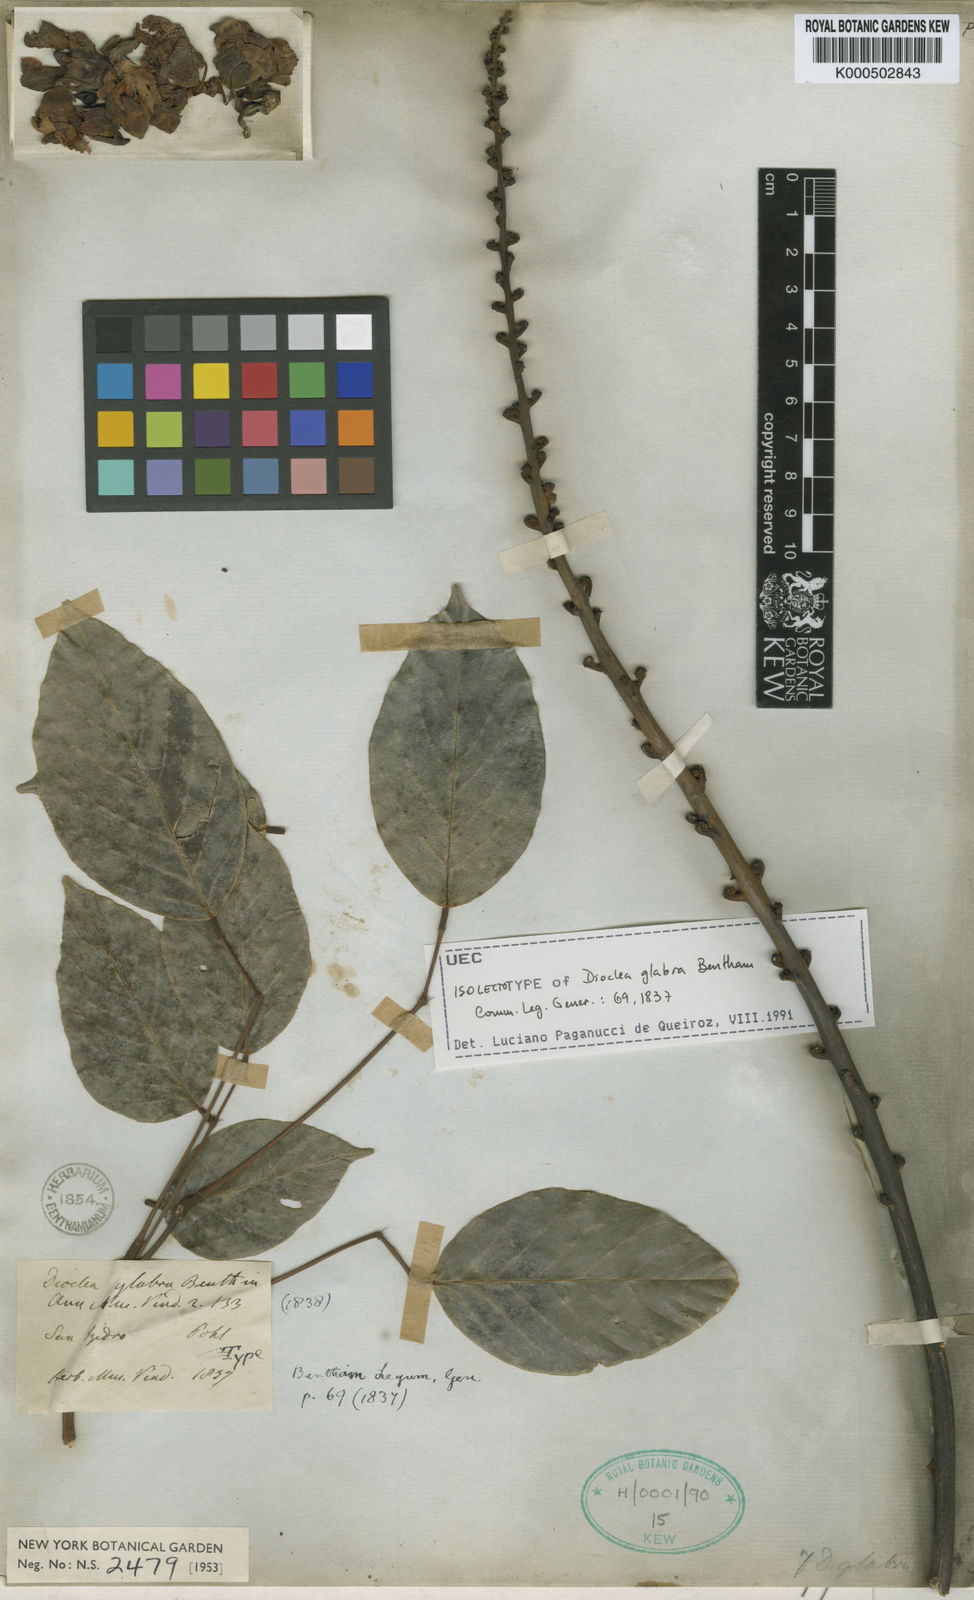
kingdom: Plantae
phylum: Tracheophyta
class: Magnoliopsida
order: Fabales
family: Fabaceae
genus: Macropsychanthus
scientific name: Macropsychanthus glaber
